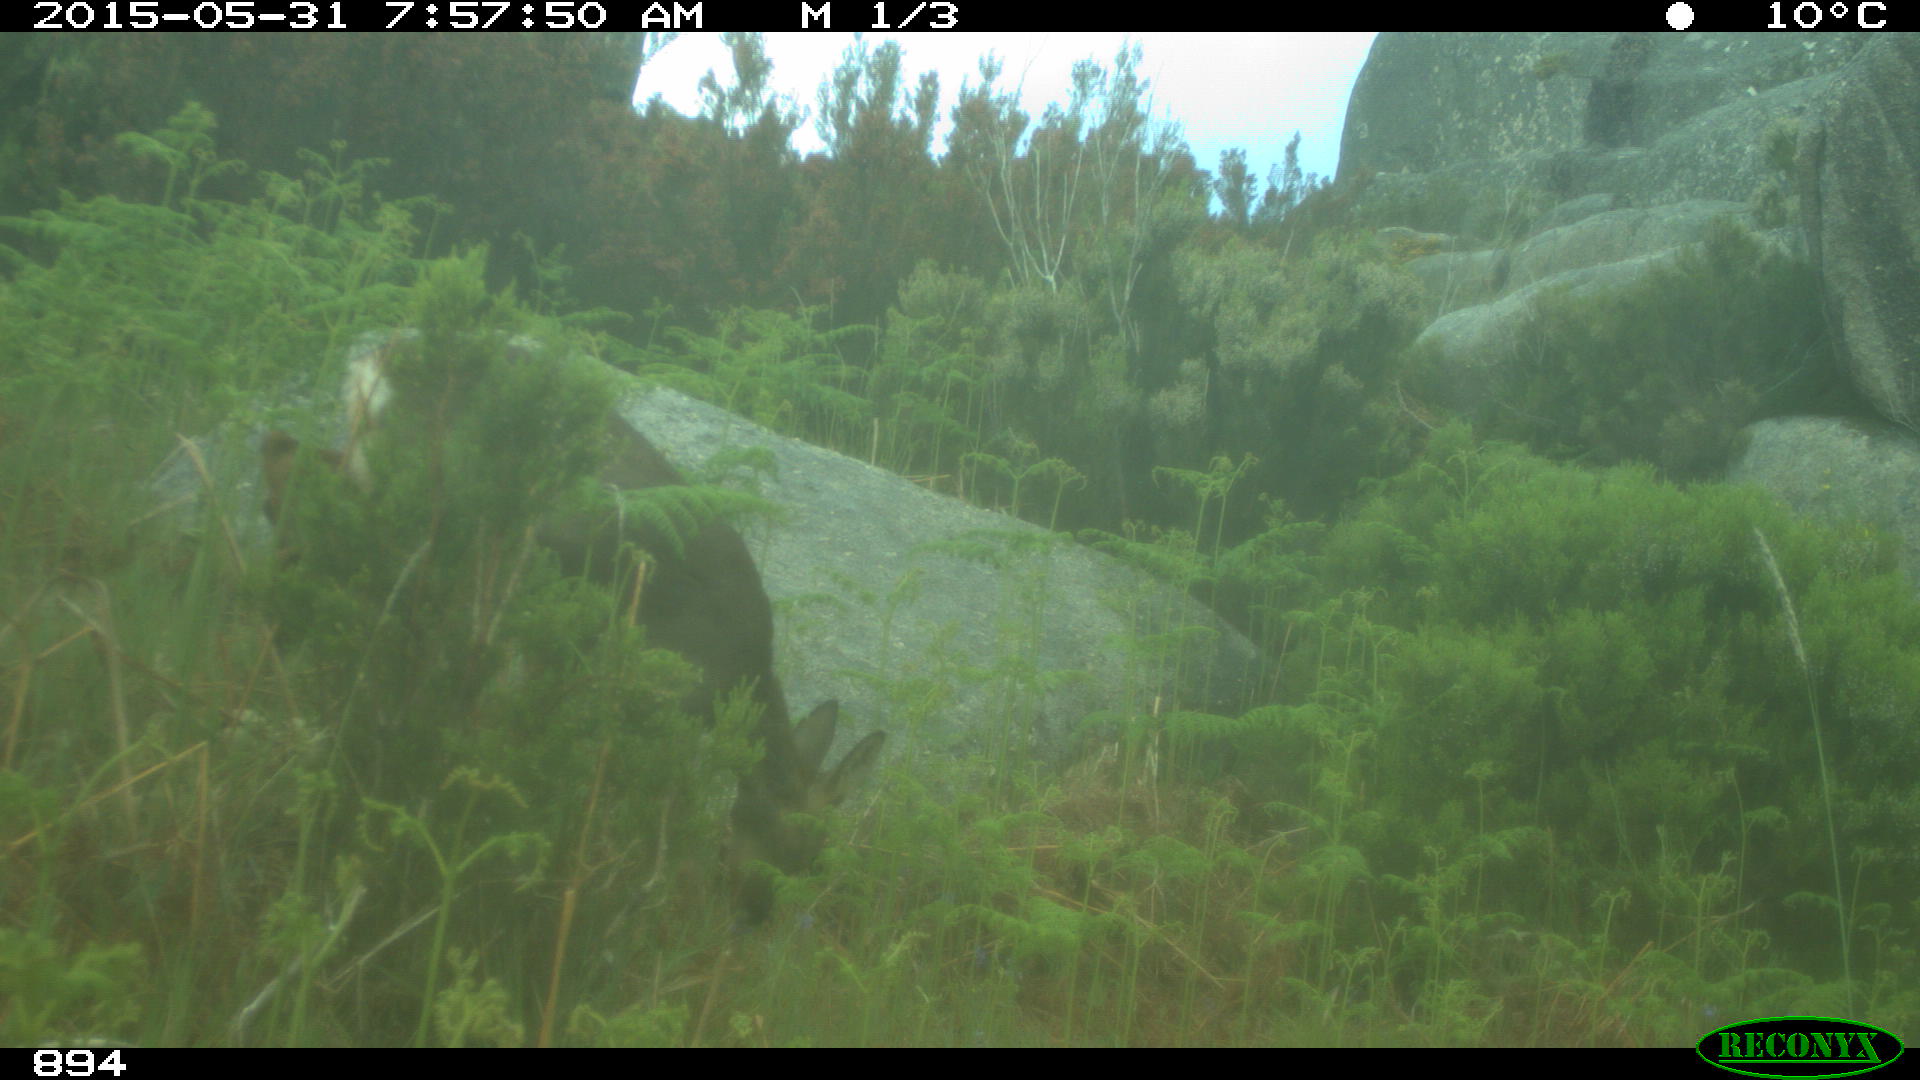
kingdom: Animalia
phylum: Chordata
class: Mammalia
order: Artiodactyla
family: Cervidae
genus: Capreolus
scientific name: Capreolus capreolus
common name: Western roe deer
